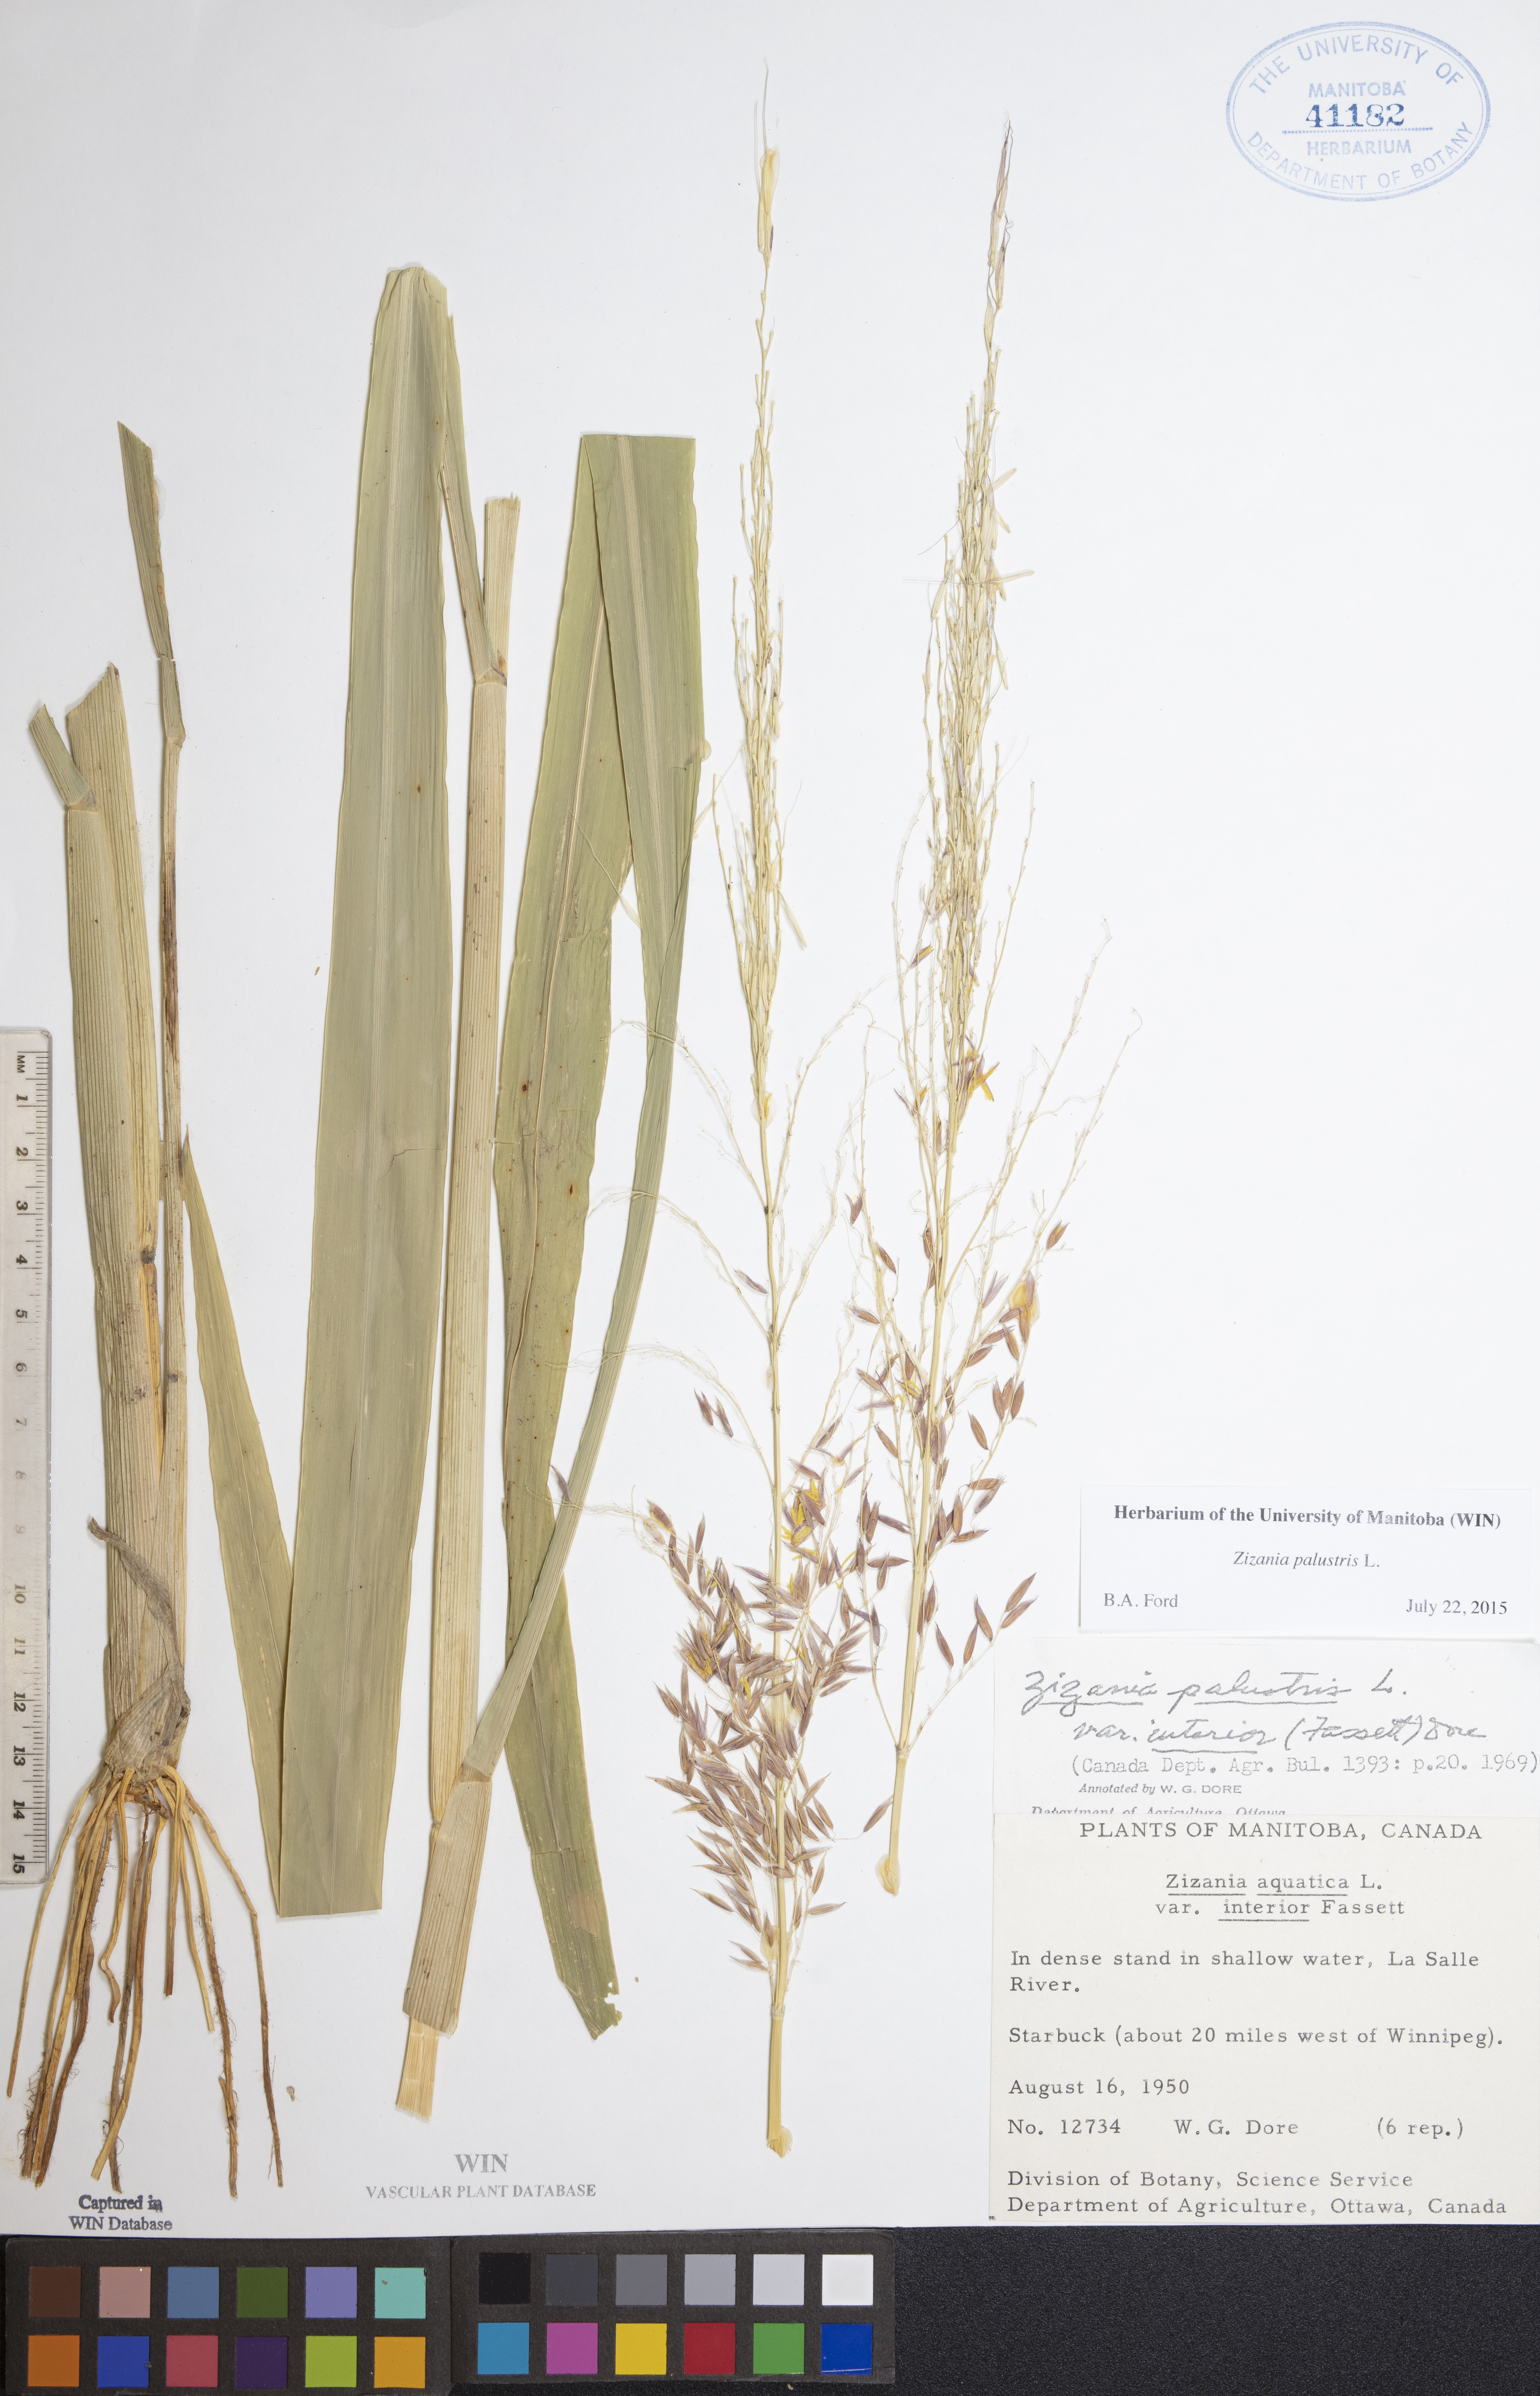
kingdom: Plantae
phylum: Tracheophyta
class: Liliopsida
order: Poales
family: Poaceae
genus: Zizania
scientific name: Zizania palustris
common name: Northern wild rice
